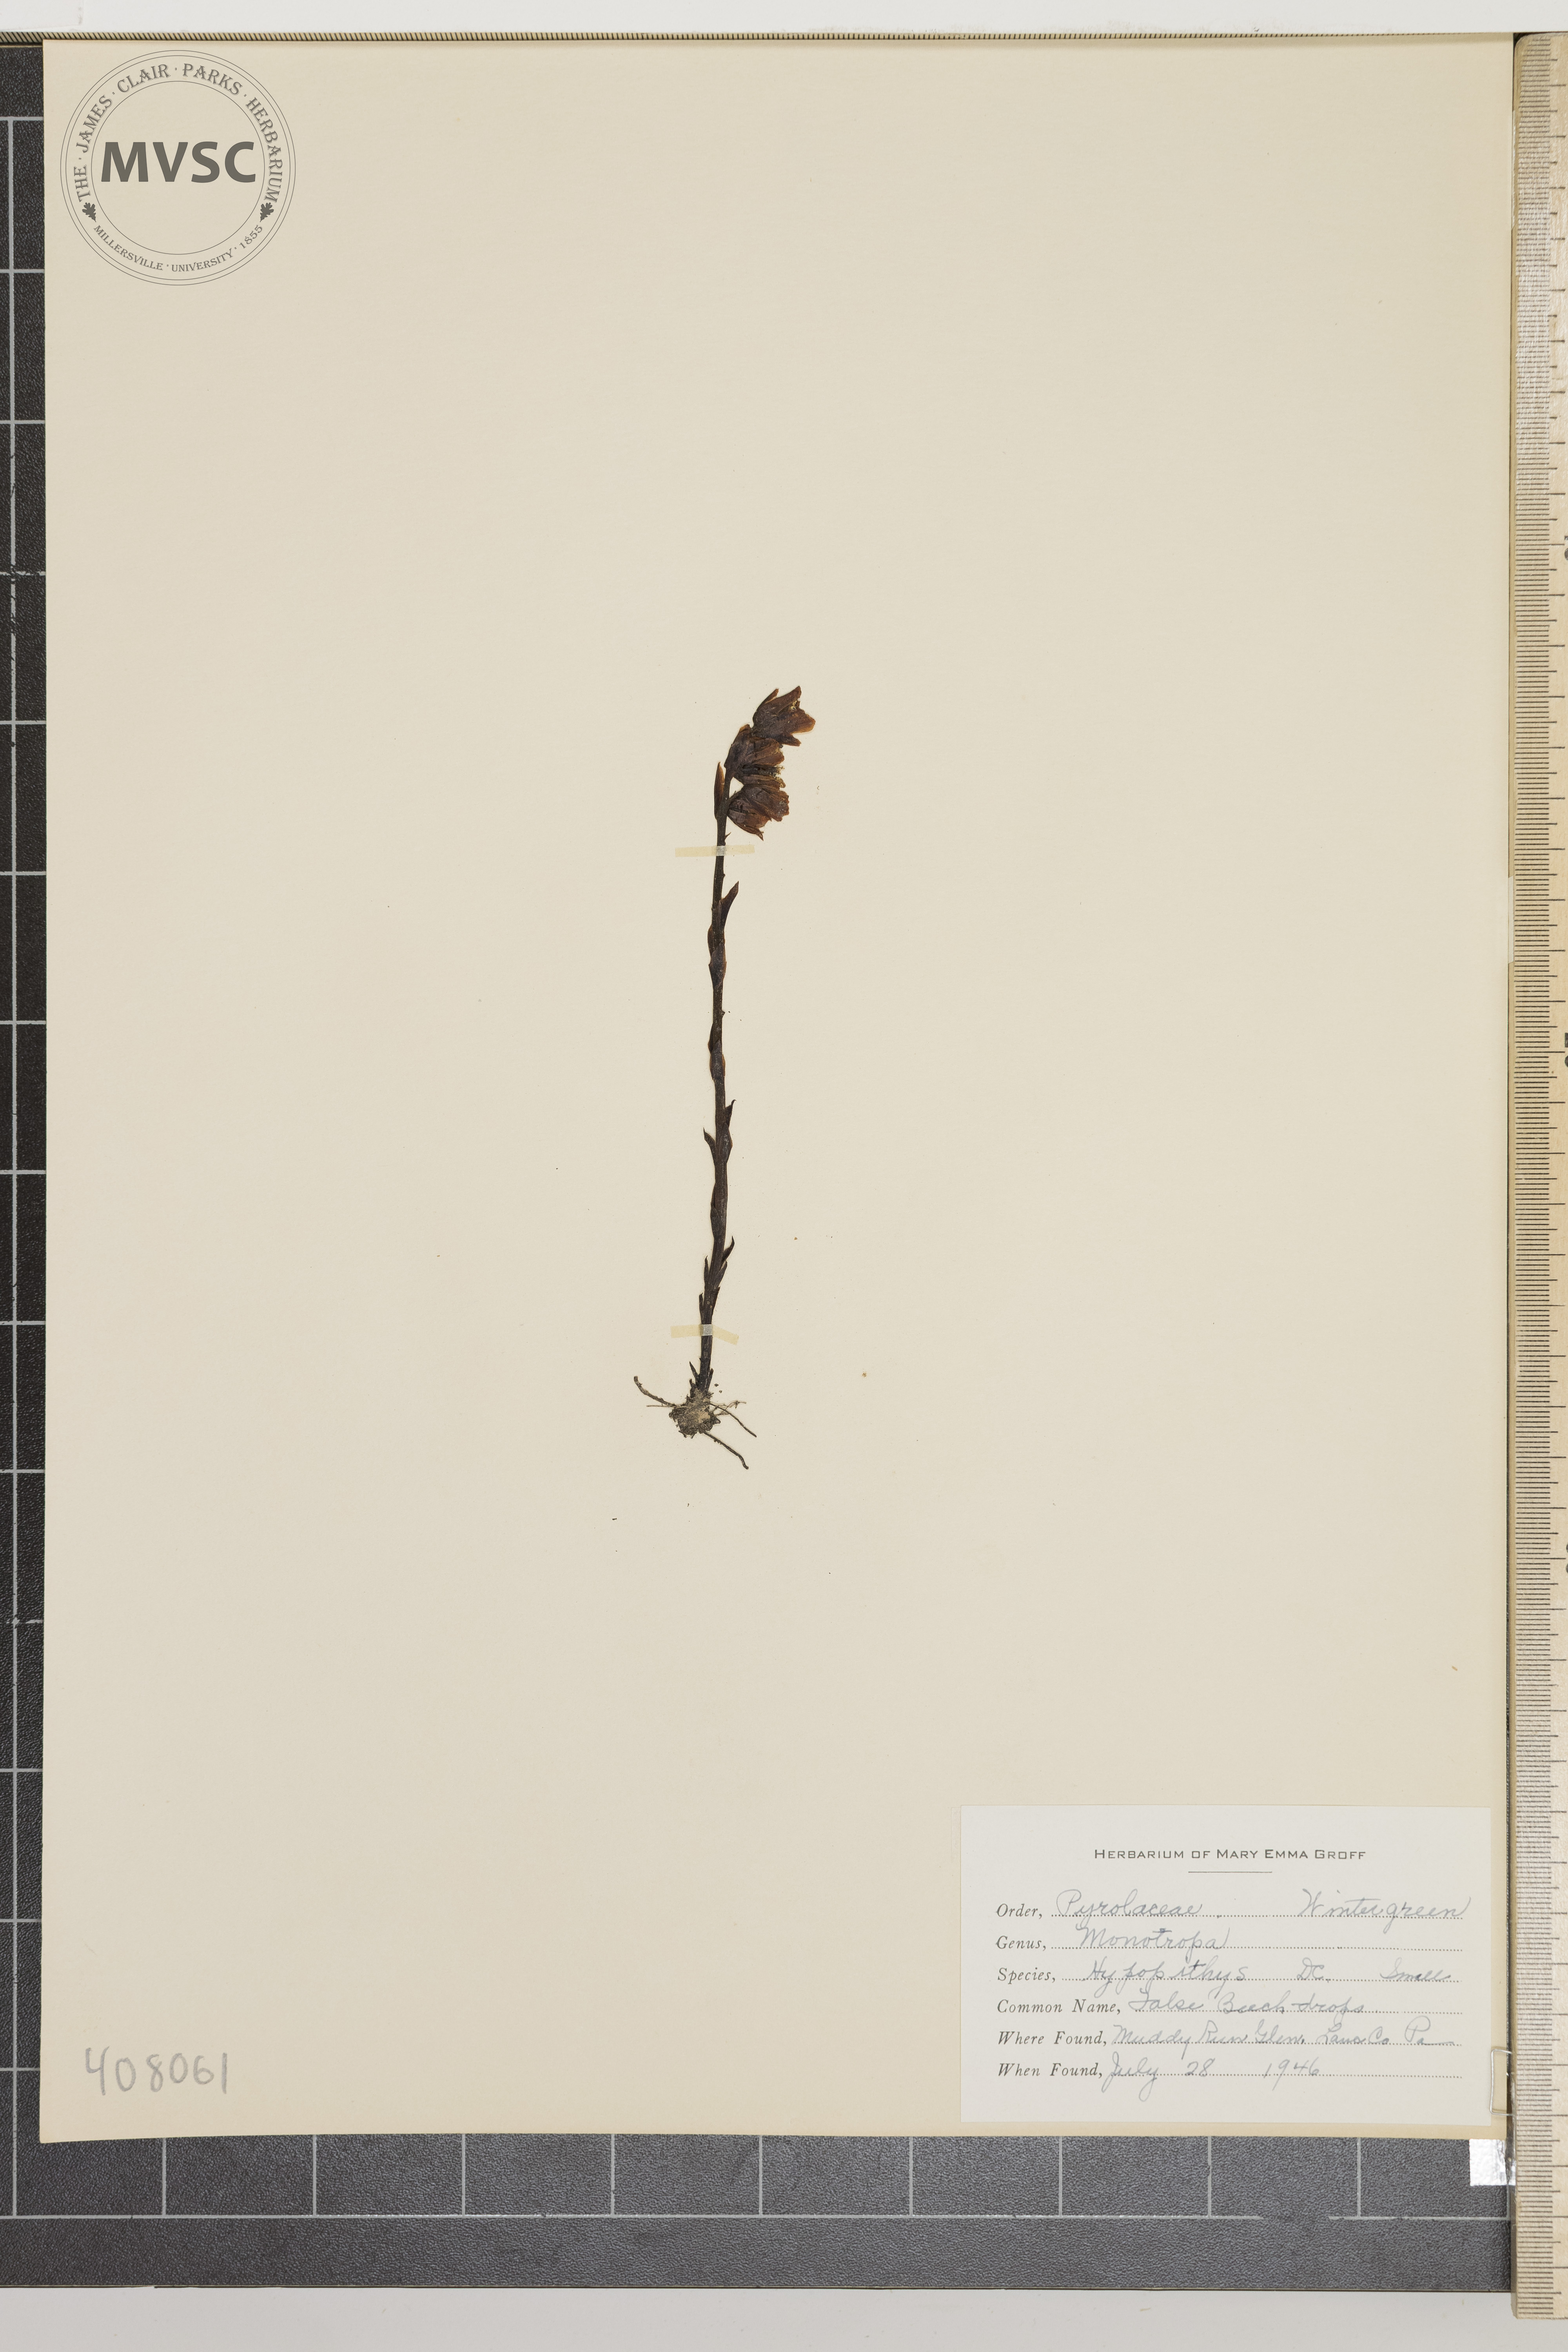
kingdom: Plantae
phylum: Tracheophyta
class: Magnoliopsida
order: Ericales
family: Ericaceae
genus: Hypopitys
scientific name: Hypopitys monotropa
